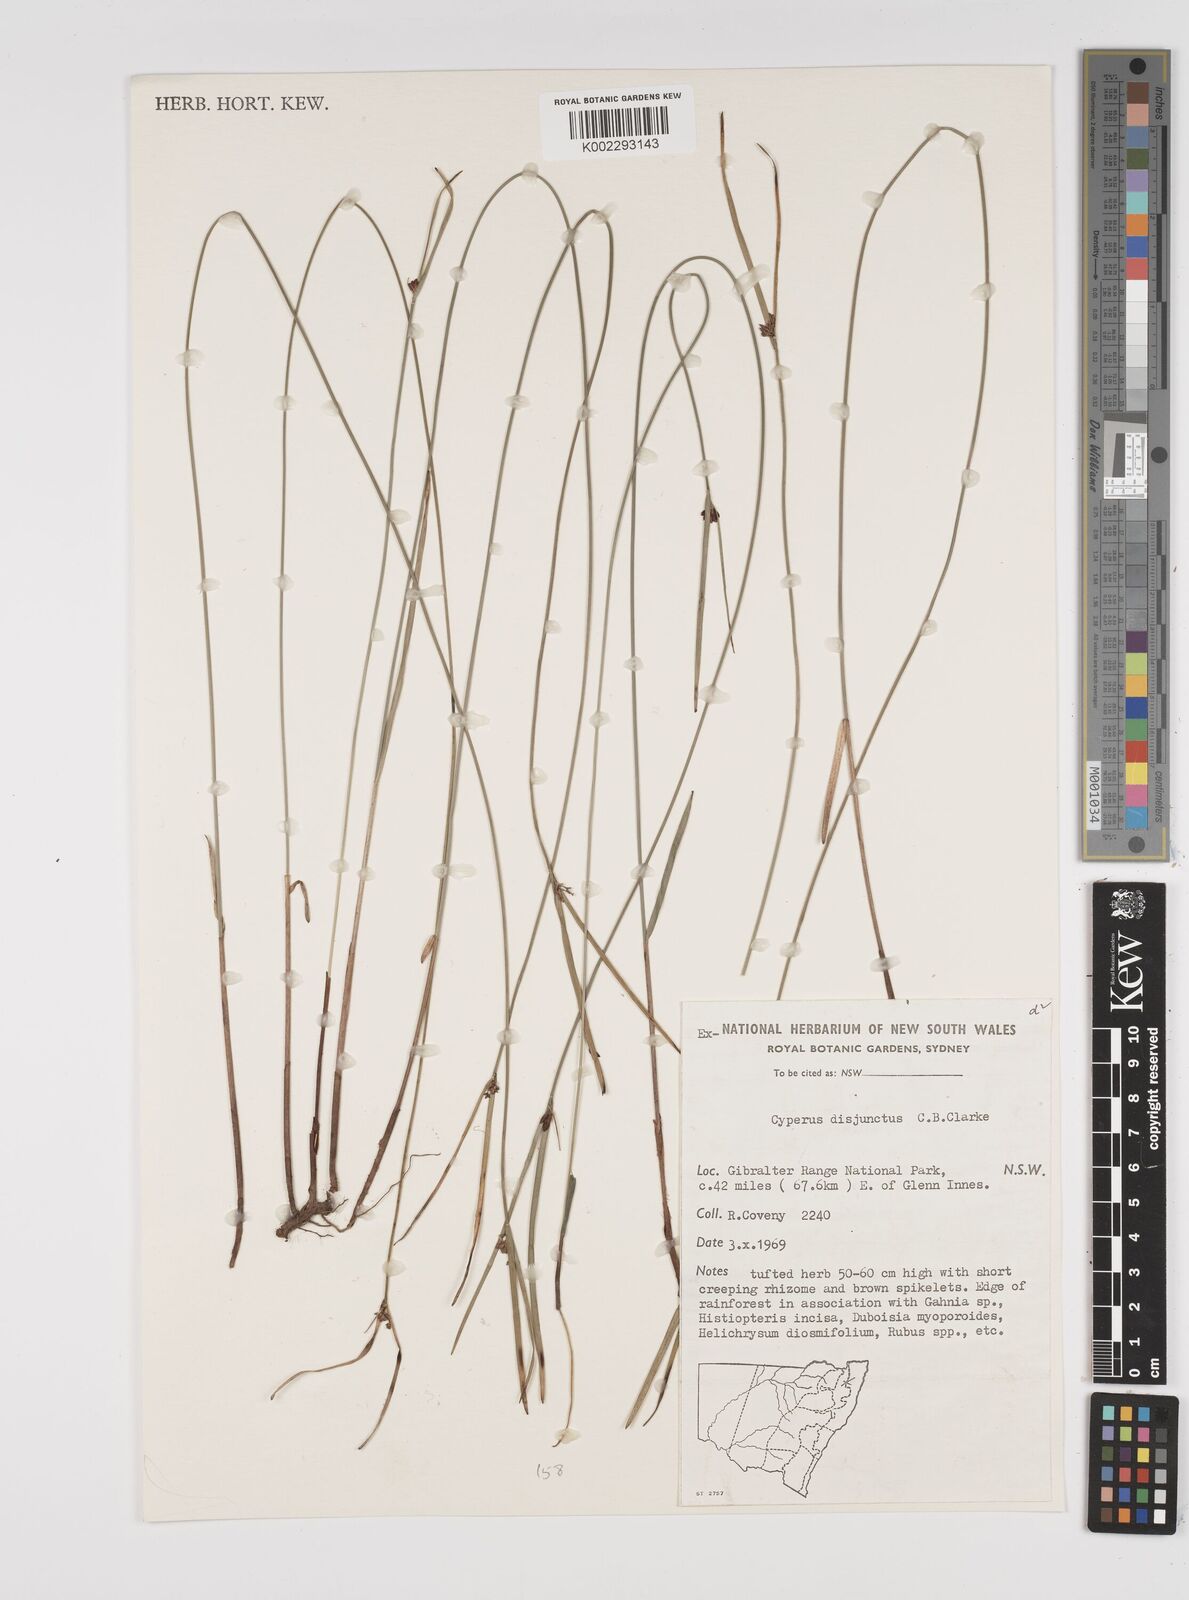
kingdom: Plantae
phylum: Tracheophyta
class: Liliopsida
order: Poales
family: Cyperaceae
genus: Cyperus
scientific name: Cyperus disjunctus
